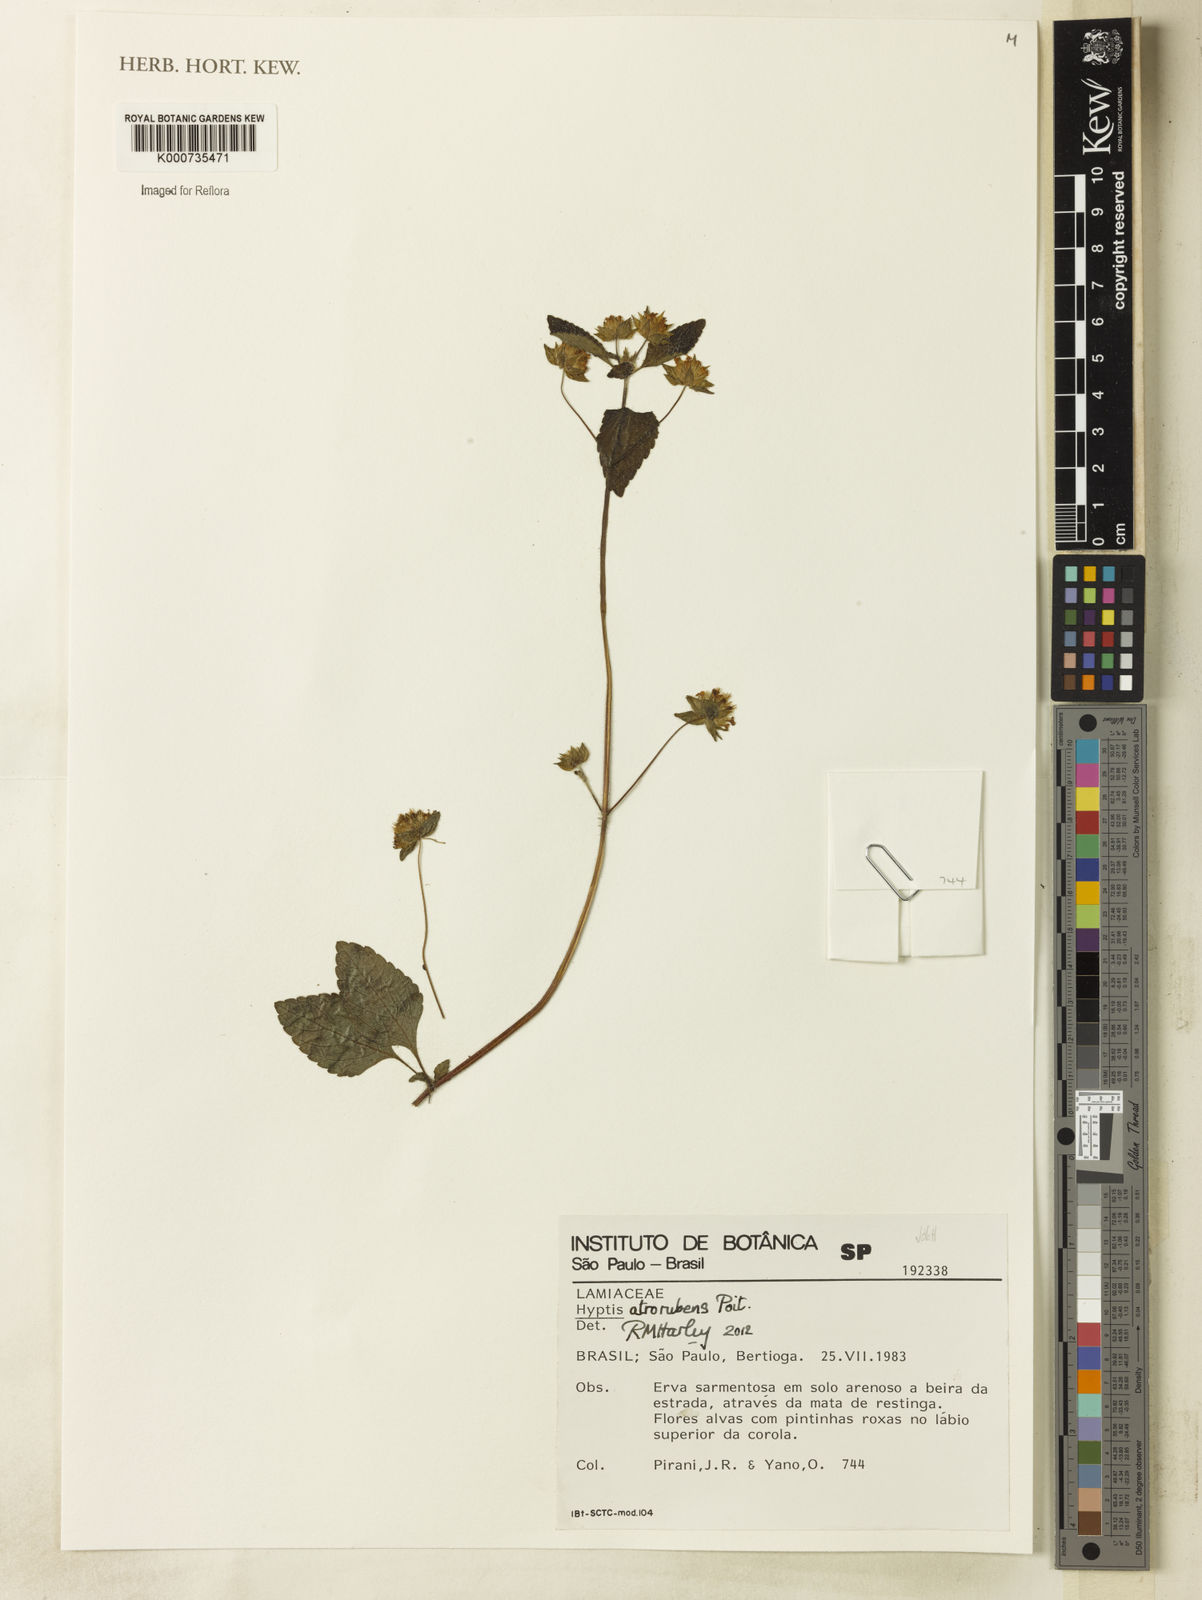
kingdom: Plantae
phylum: Tracheophyta
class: Magnoliopsida
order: Lamiales
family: Lamiaceae
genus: Hyptis
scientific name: Hyptis atrorubens
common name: Lanmant
